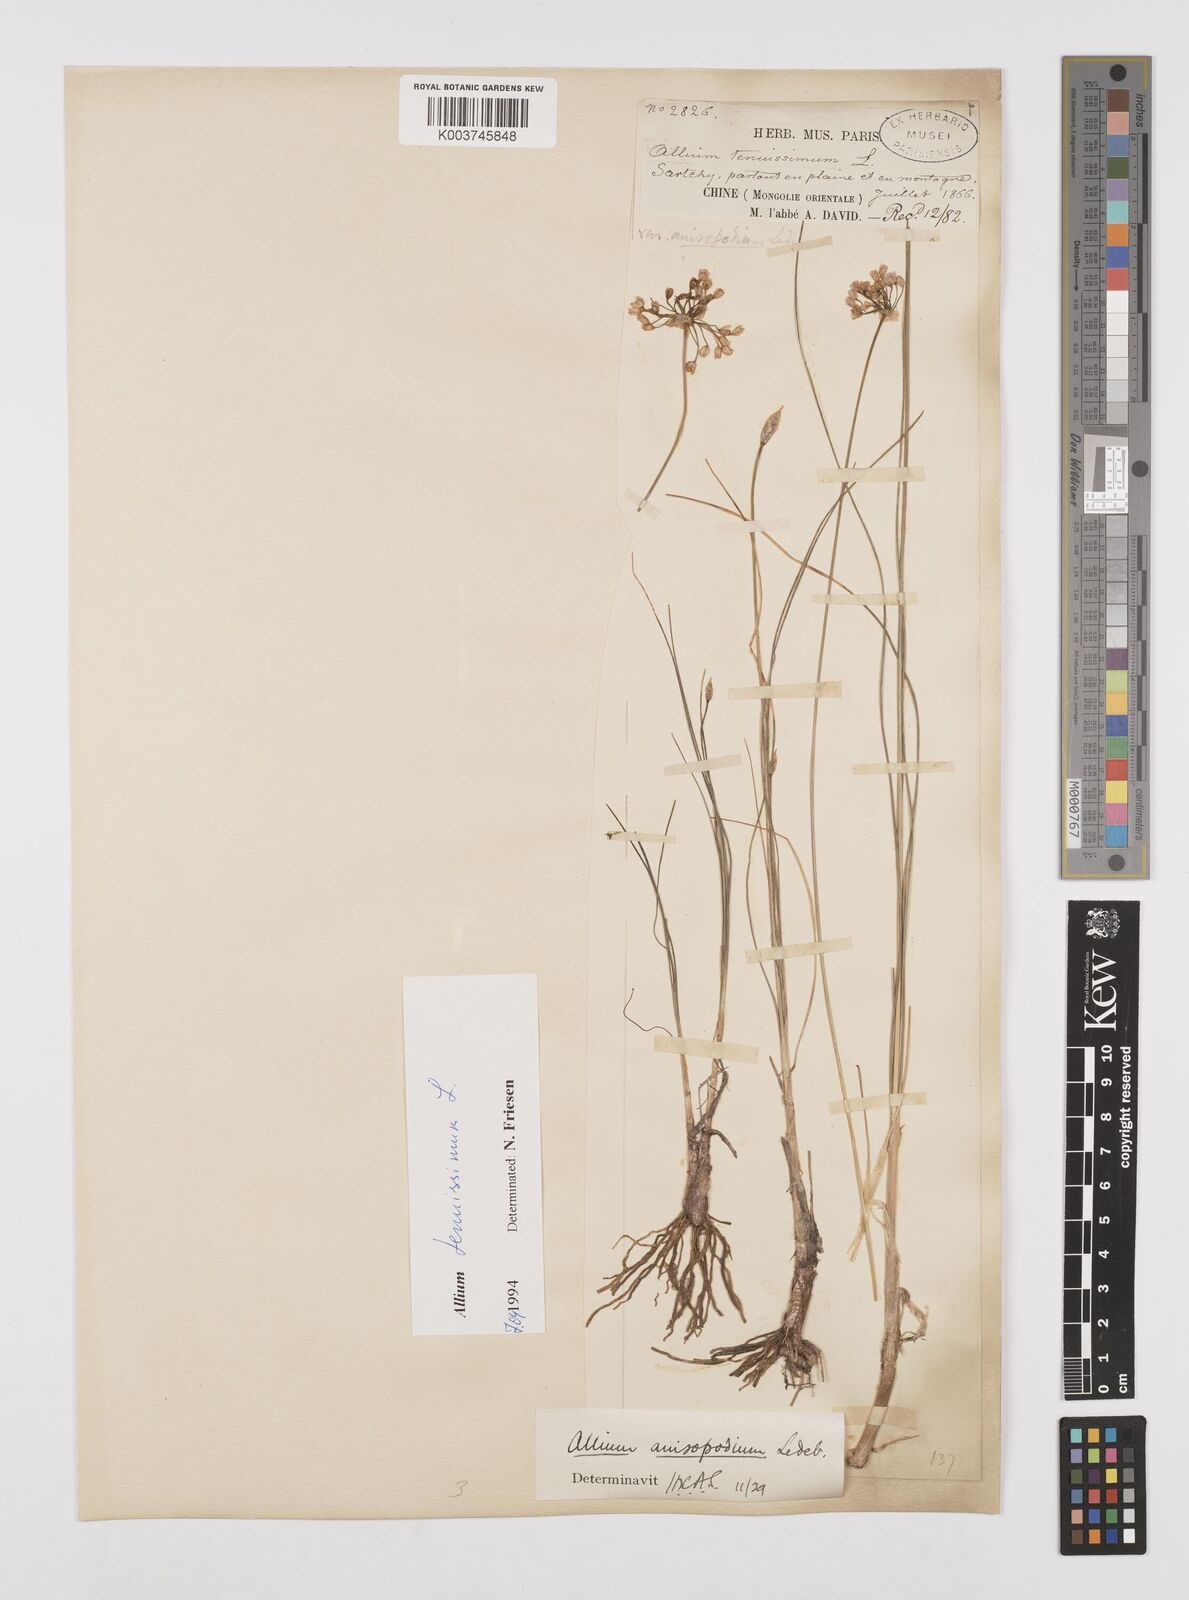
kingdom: Plantae
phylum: Tracheophyta
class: Liliopsida
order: Asparagales
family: Amaryllidaceae
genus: Allium
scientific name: Allium tenuissimum
